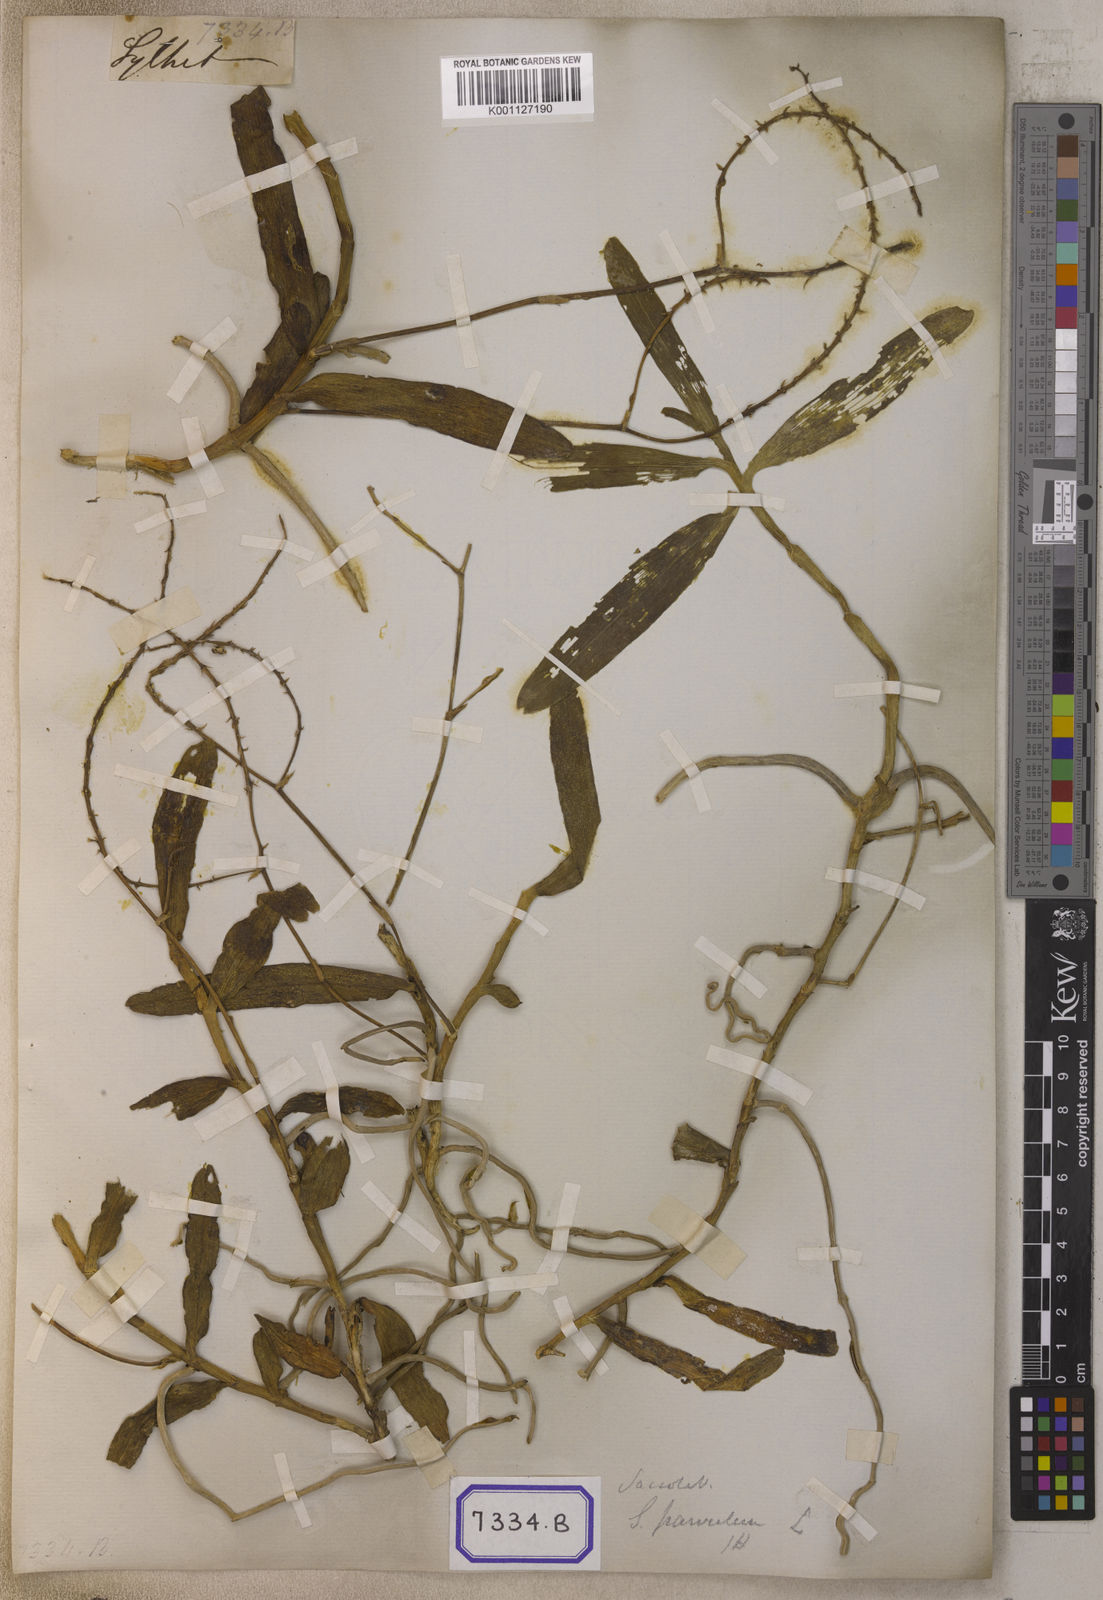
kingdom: Plantae
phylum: Tracheophyta
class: Liliopsida
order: Asparagales
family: Orchidaceae
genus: Robiquetia
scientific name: Robiquetia succisa
